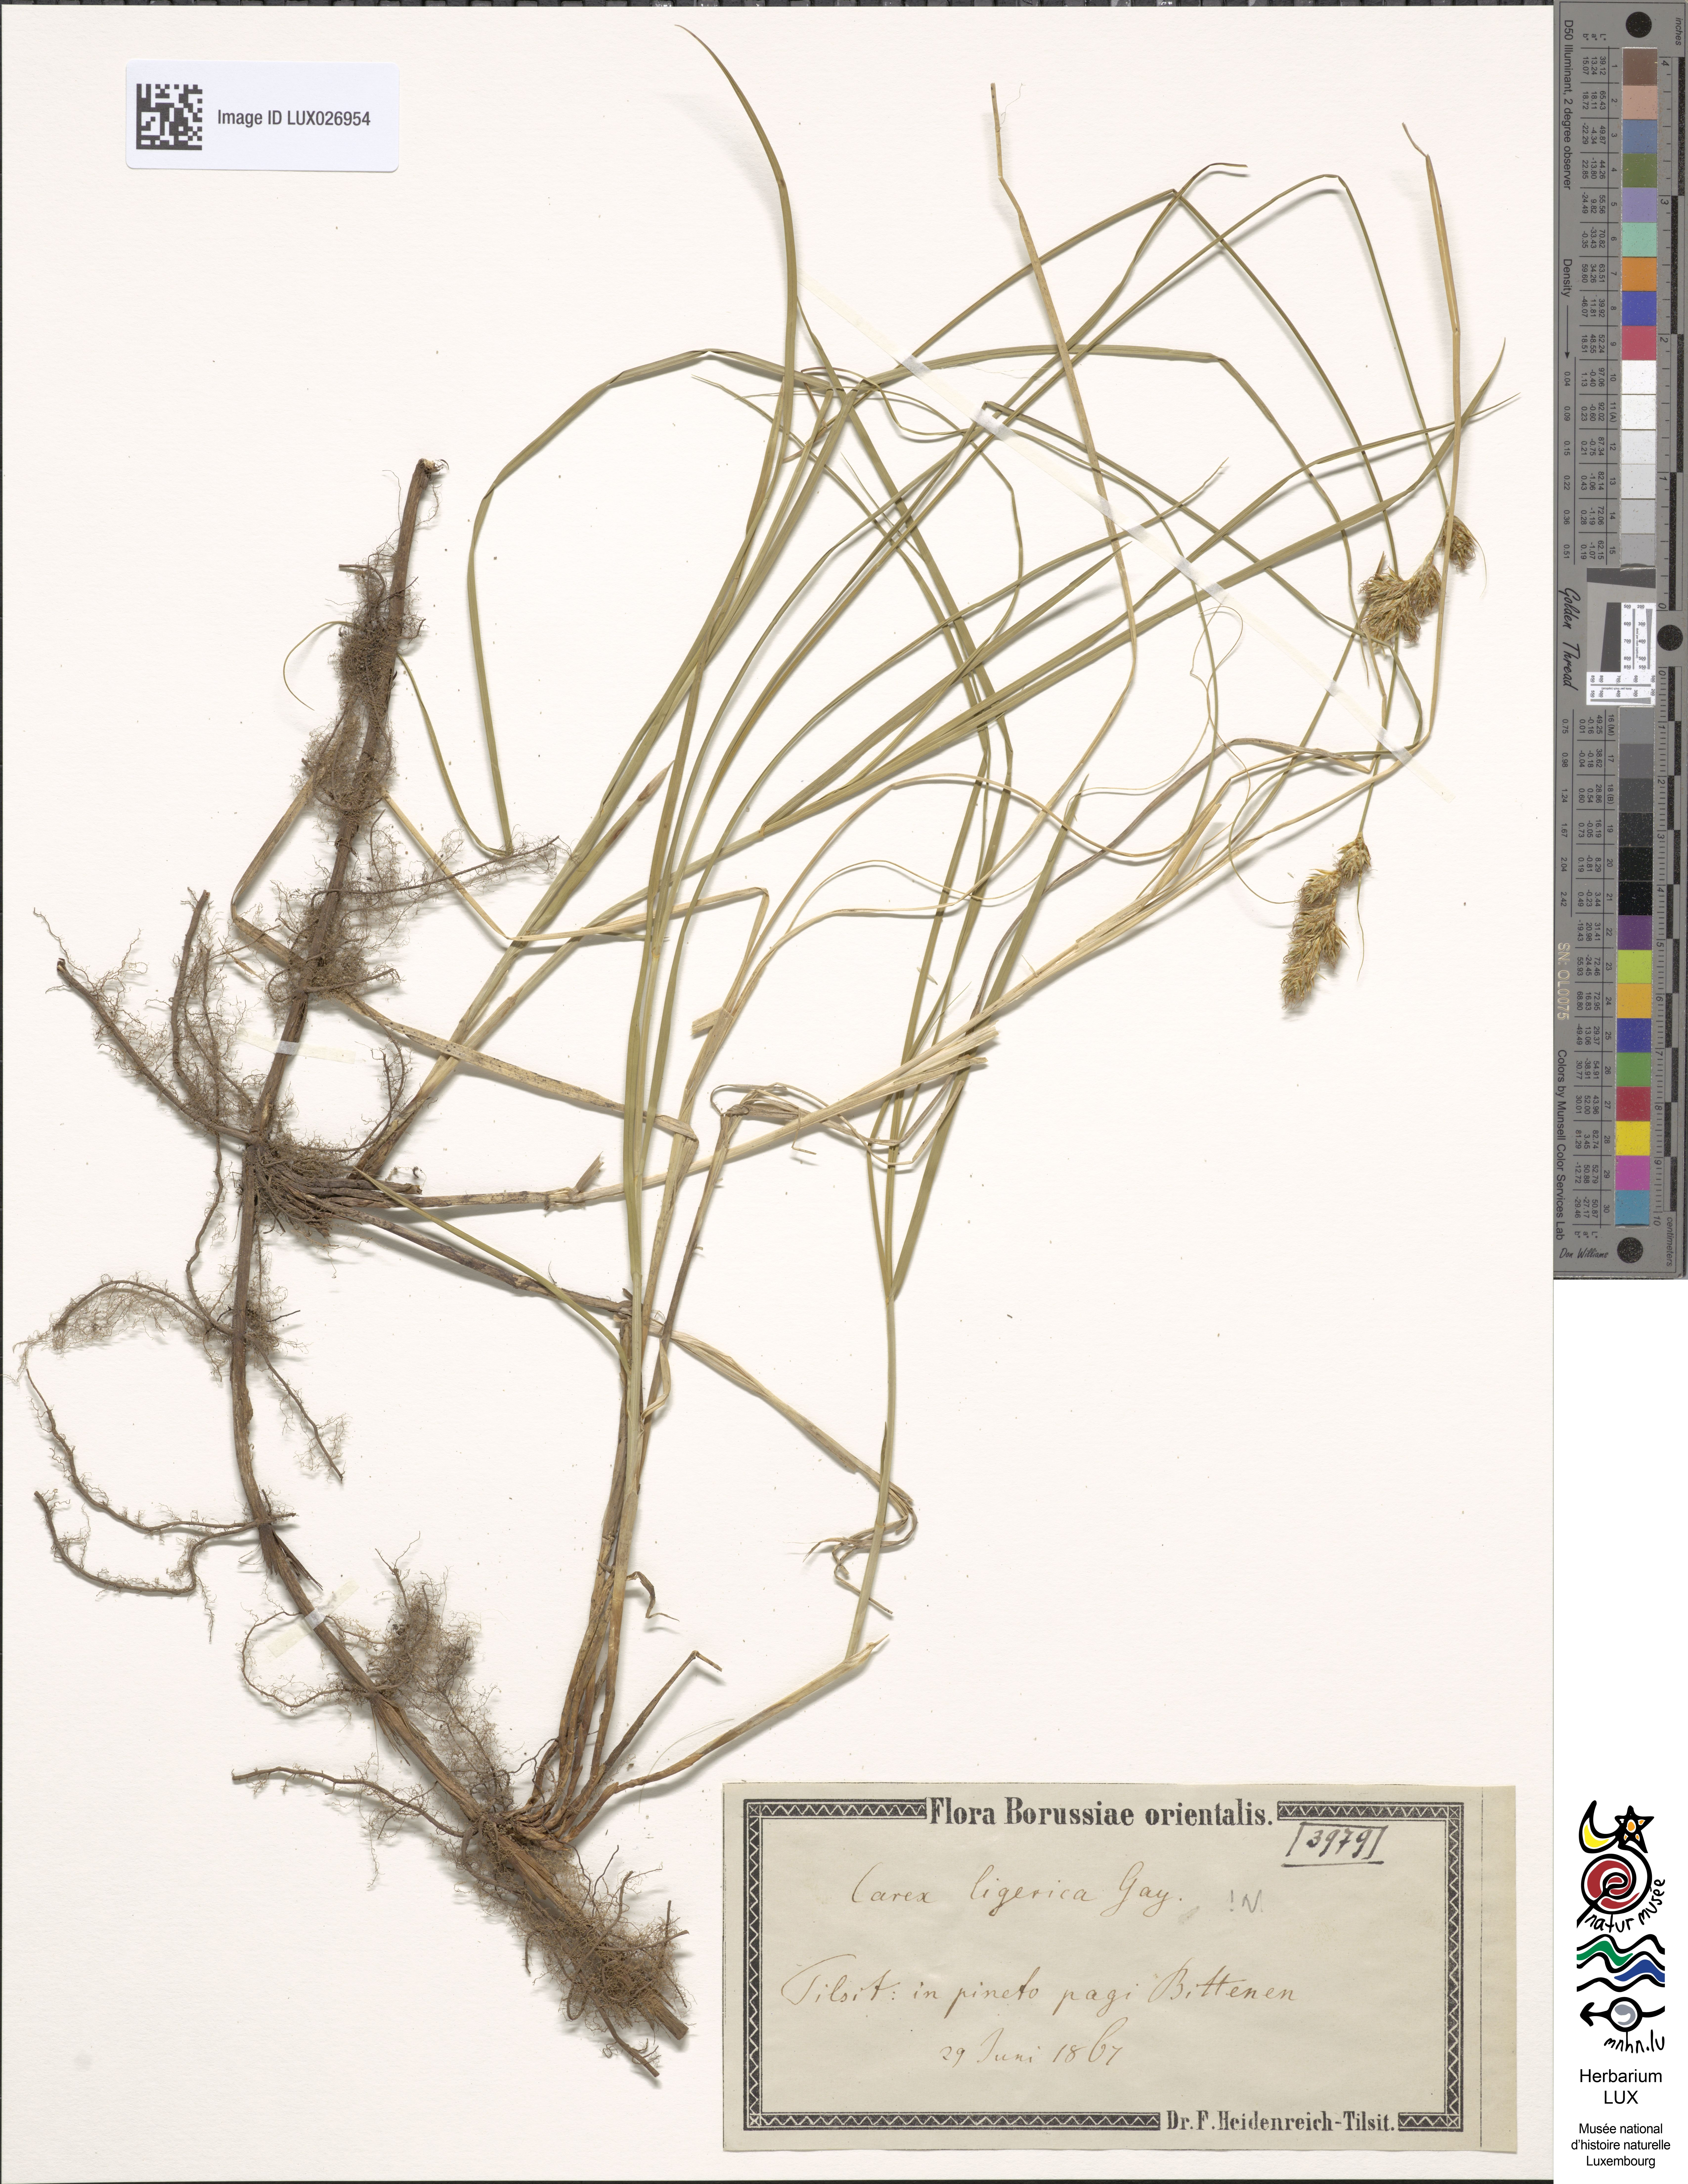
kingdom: Plantae
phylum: Tracheophyta
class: Liliopsida
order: Poales
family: Cyperaceae
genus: Carex
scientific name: Carex colchica
